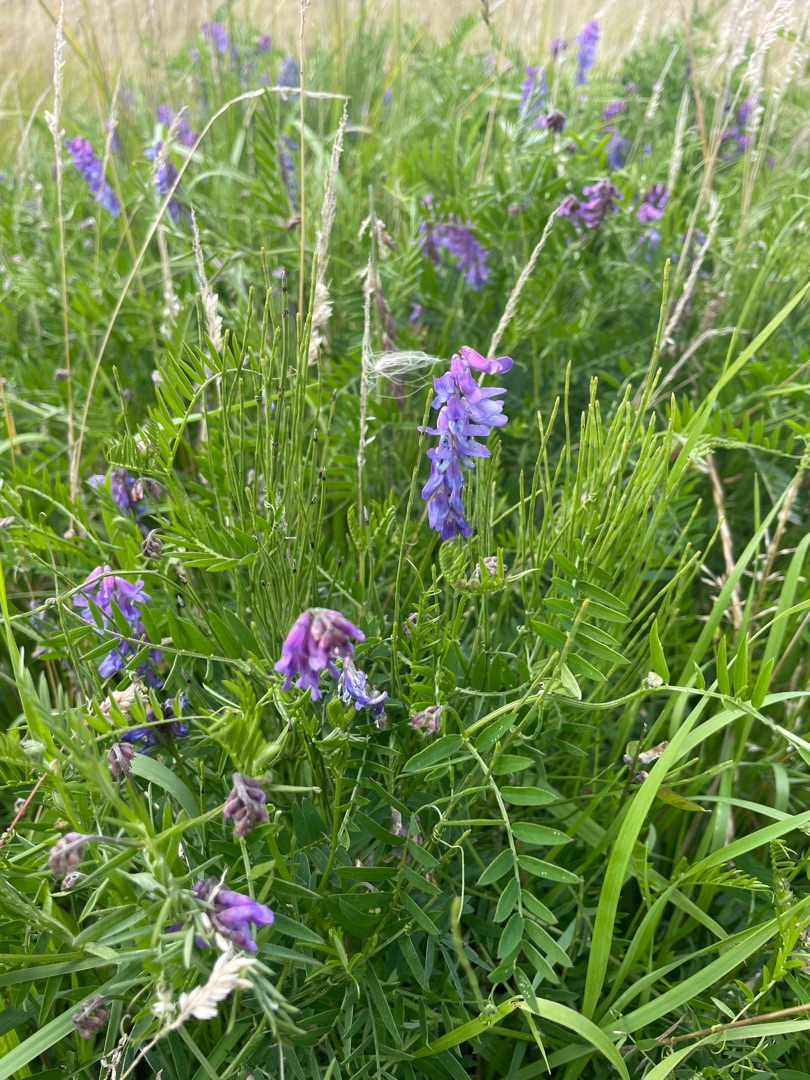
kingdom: Plantae
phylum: Tracheophyta
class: Magnoliopsida
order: Fabales
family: Fabaceae
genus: Vicia
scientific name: Vicia cracca
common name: Muse-vikke
